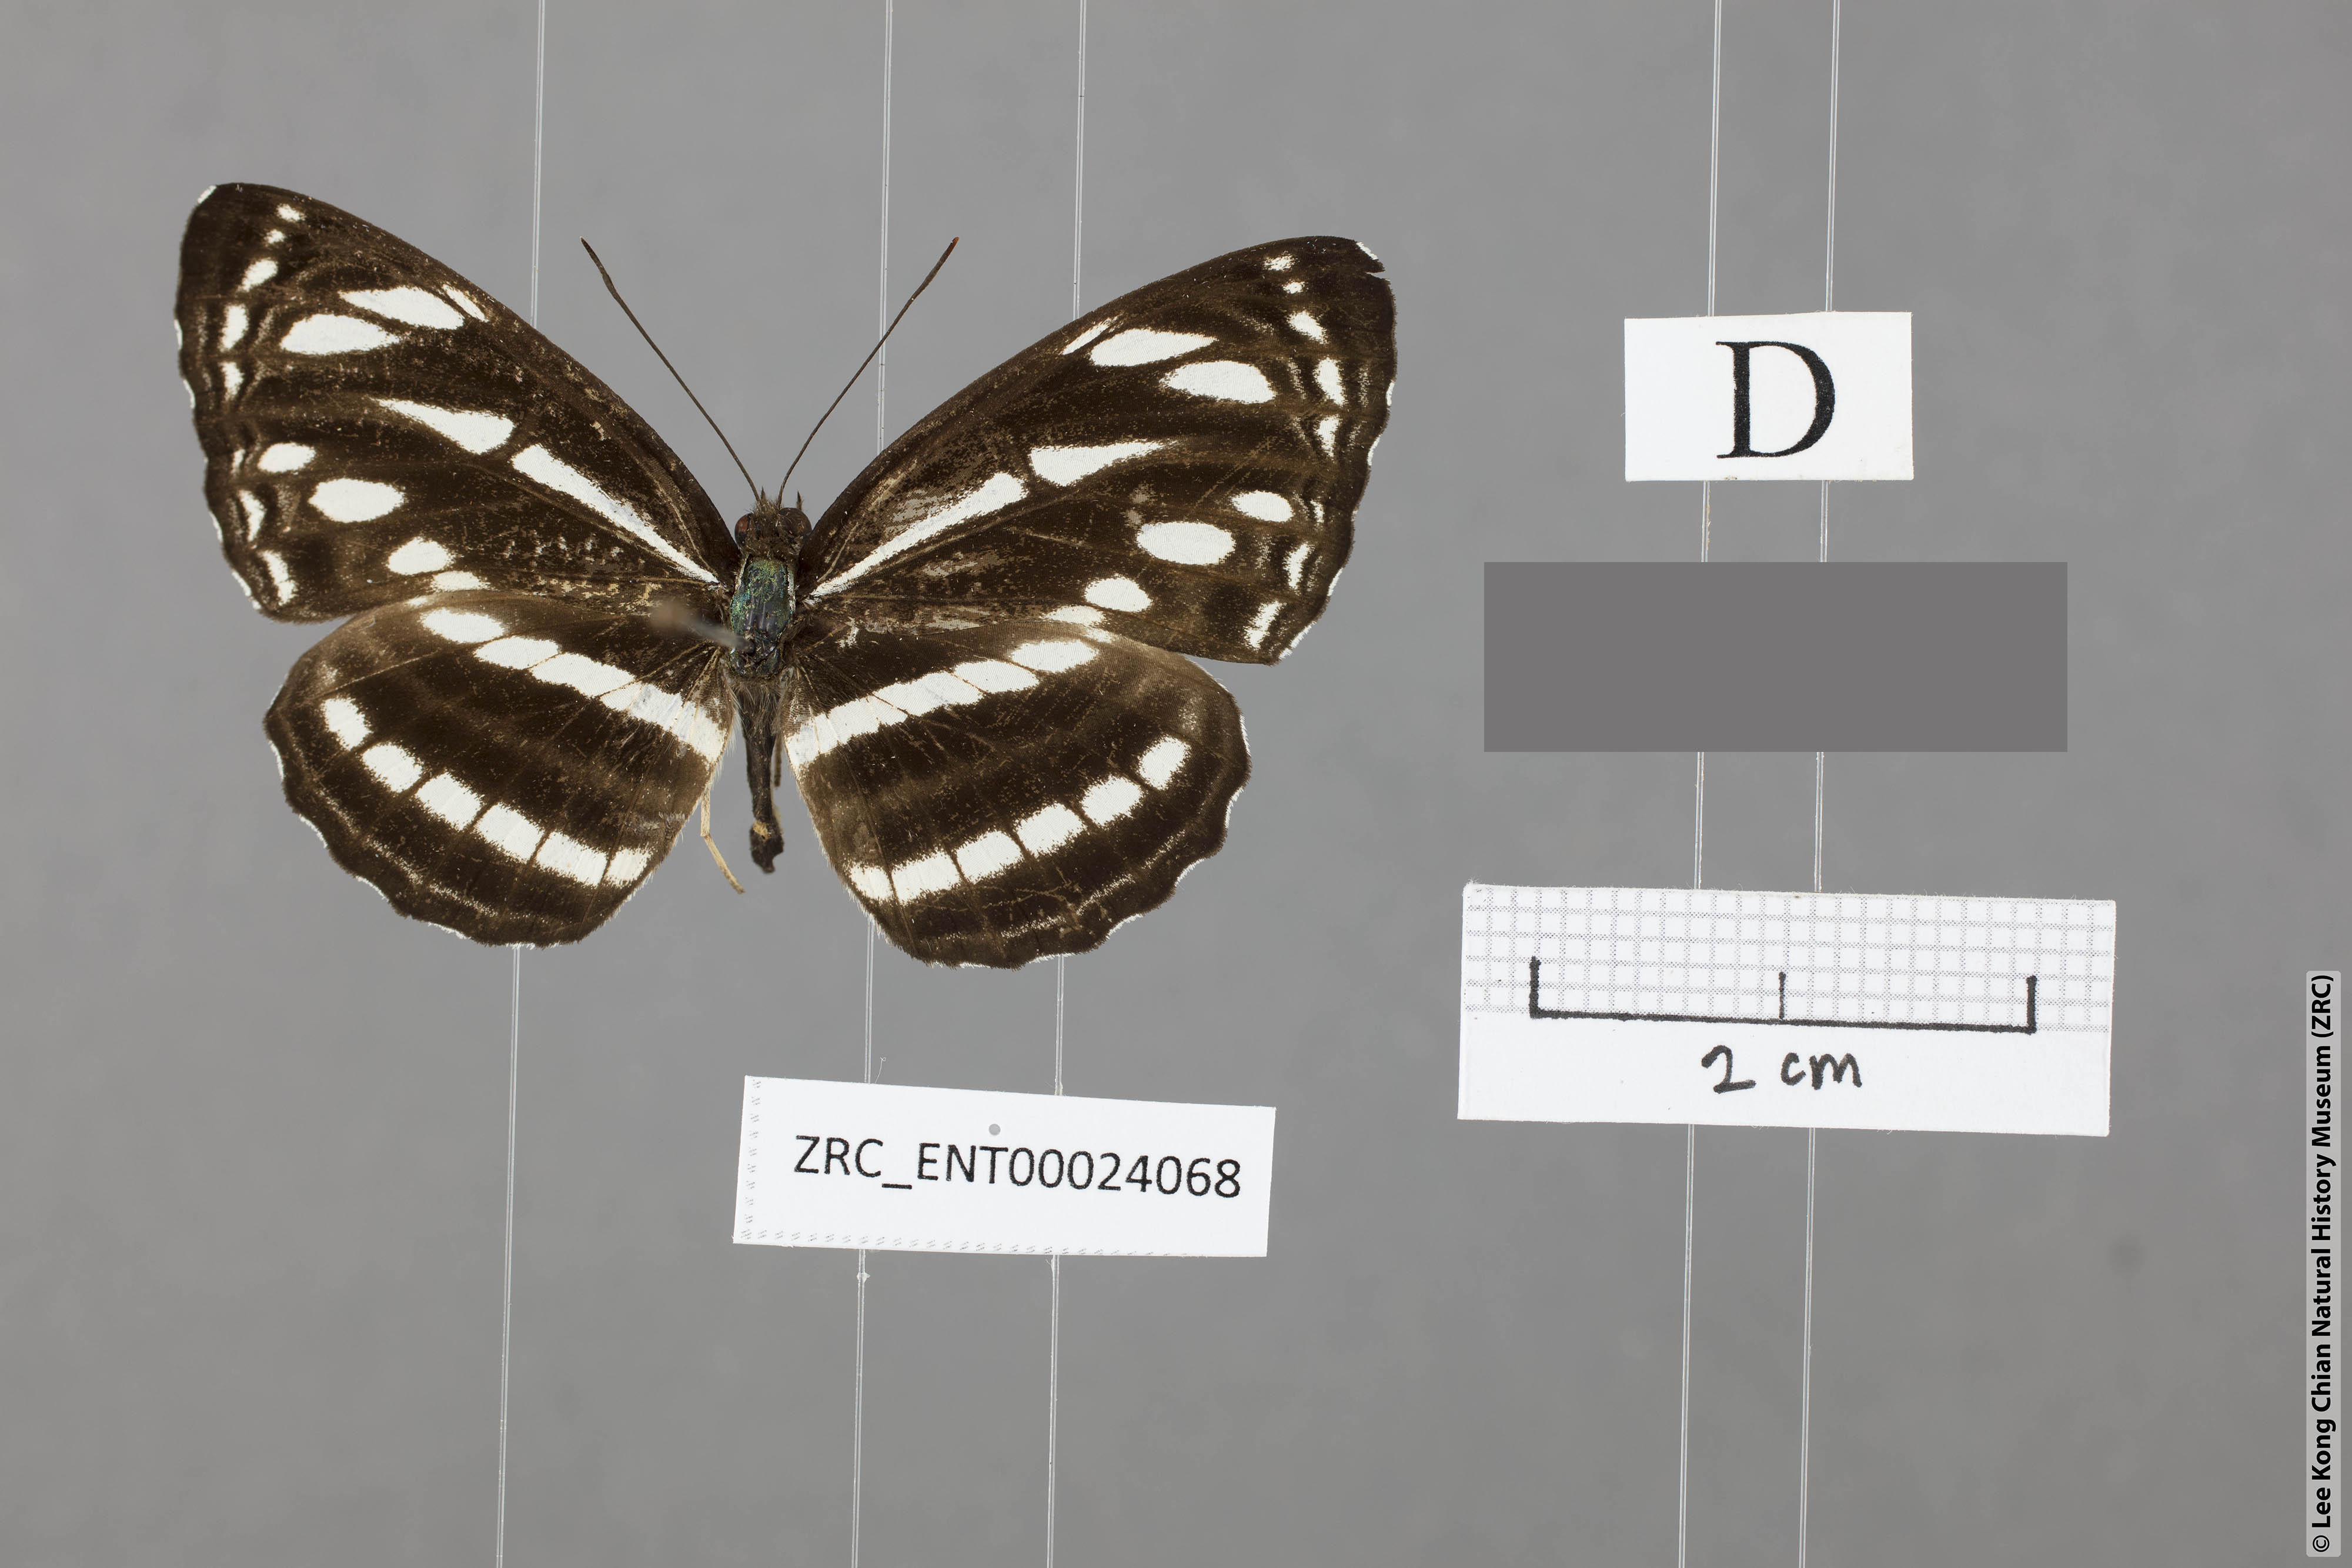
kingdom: Animalia
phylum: Arthropoda
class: Insecta
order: Lepidoptera
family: Nymphalidae
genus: Neptis
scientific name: Neptis
